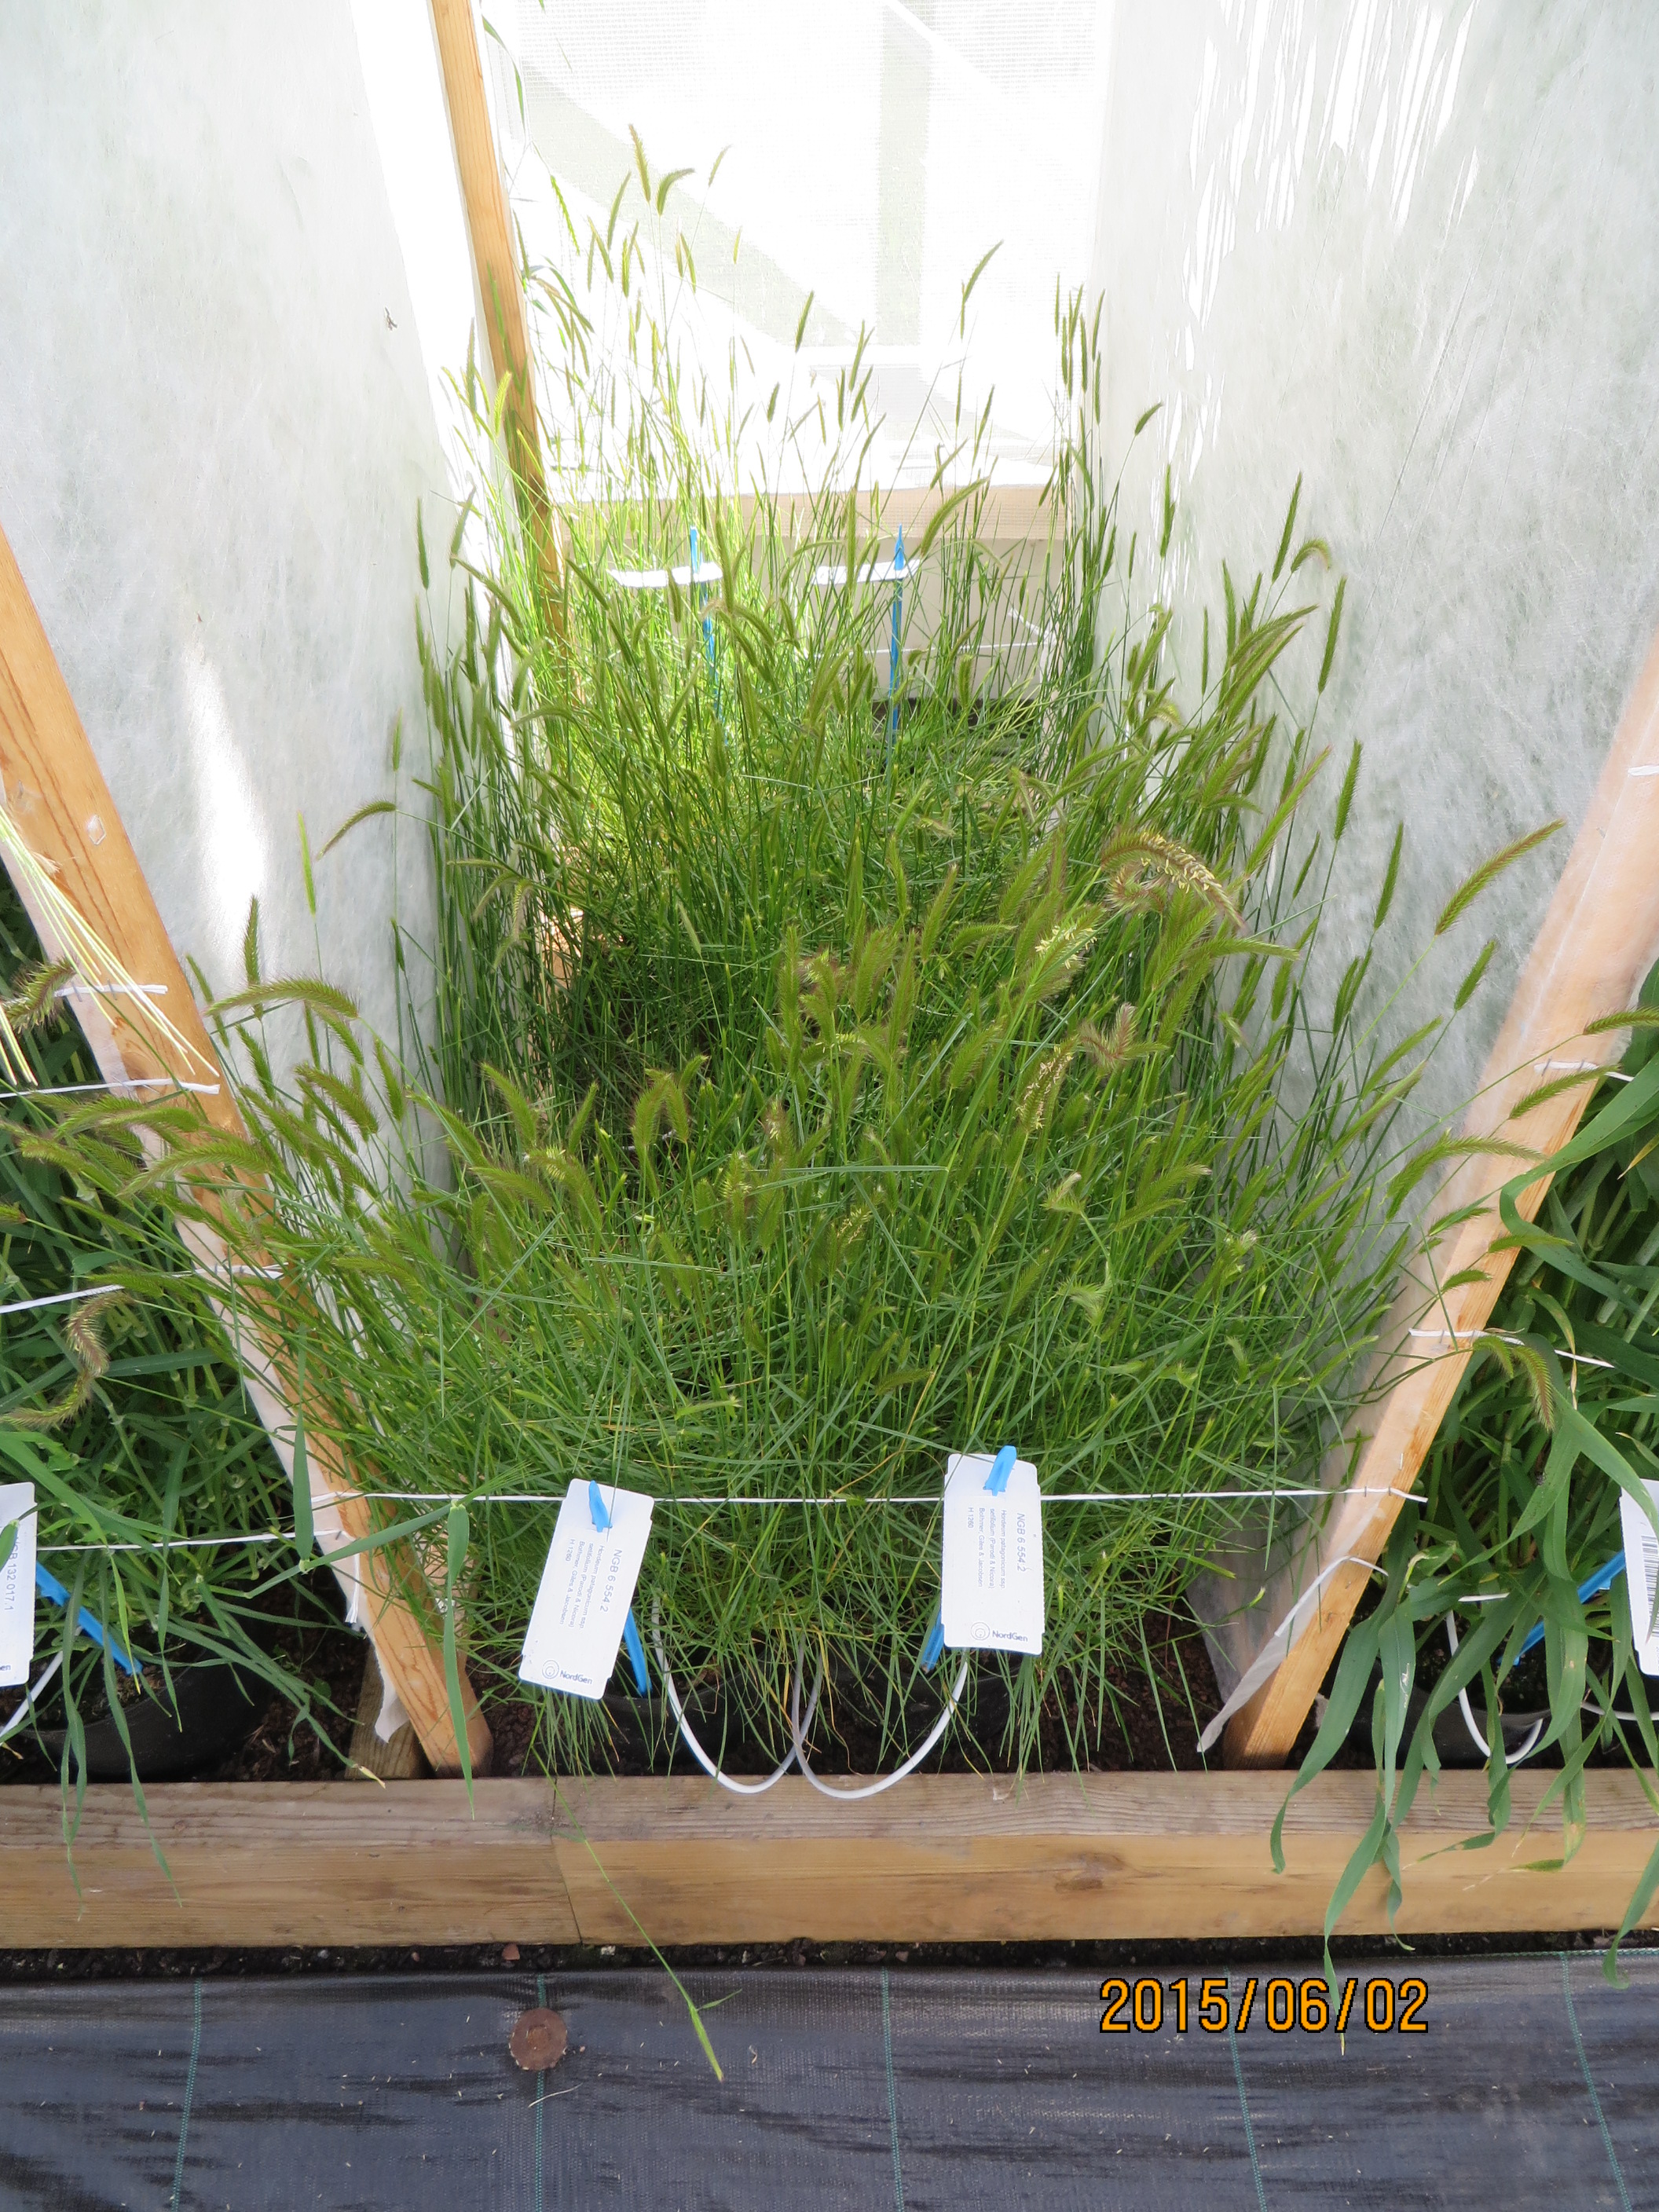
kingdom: Plantae
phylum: Tracheophyta
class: Liliopsida
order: Poales
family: Poaceae
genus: Hordeum
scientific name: Hordeum patagonicum
